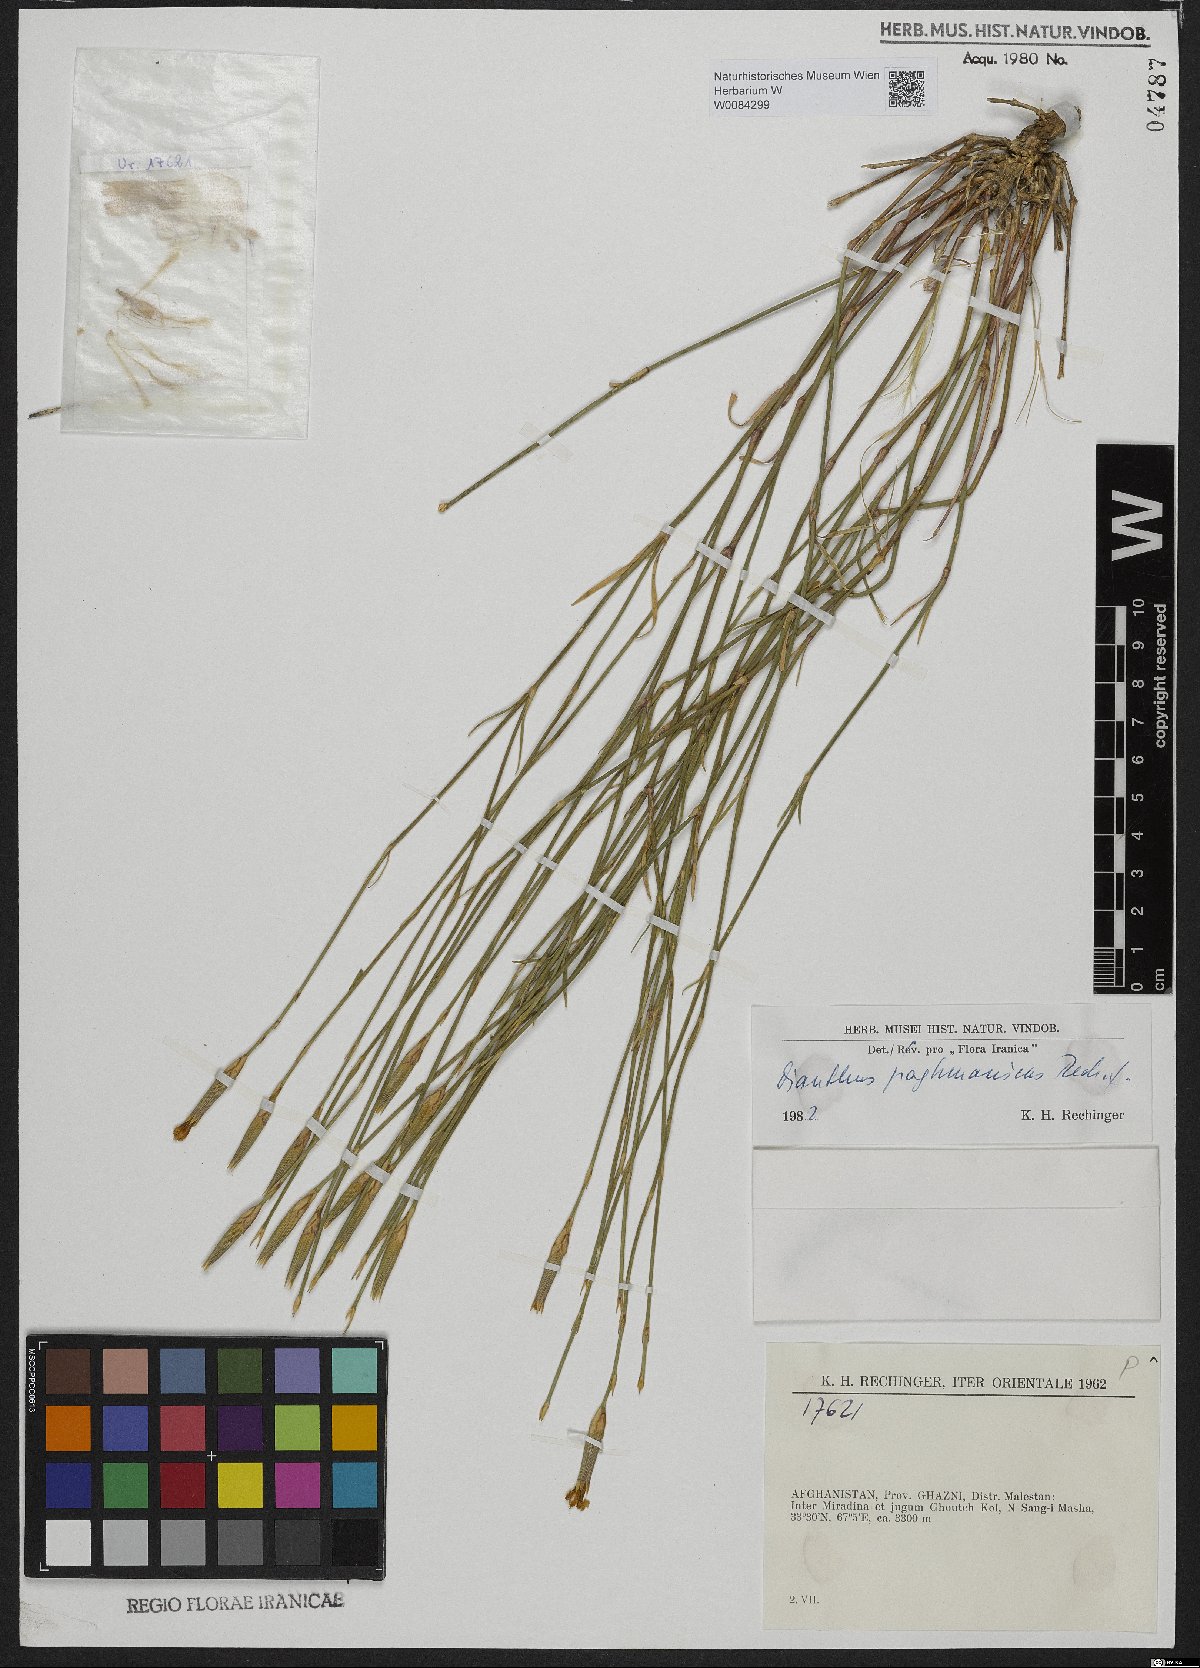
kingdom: Plantae
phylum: Tracheophyta
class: Magnoliopsida
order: Caryophyllales
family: Caryophyllaceae
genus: Dianthus
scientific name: Dianthus paghmanicus
